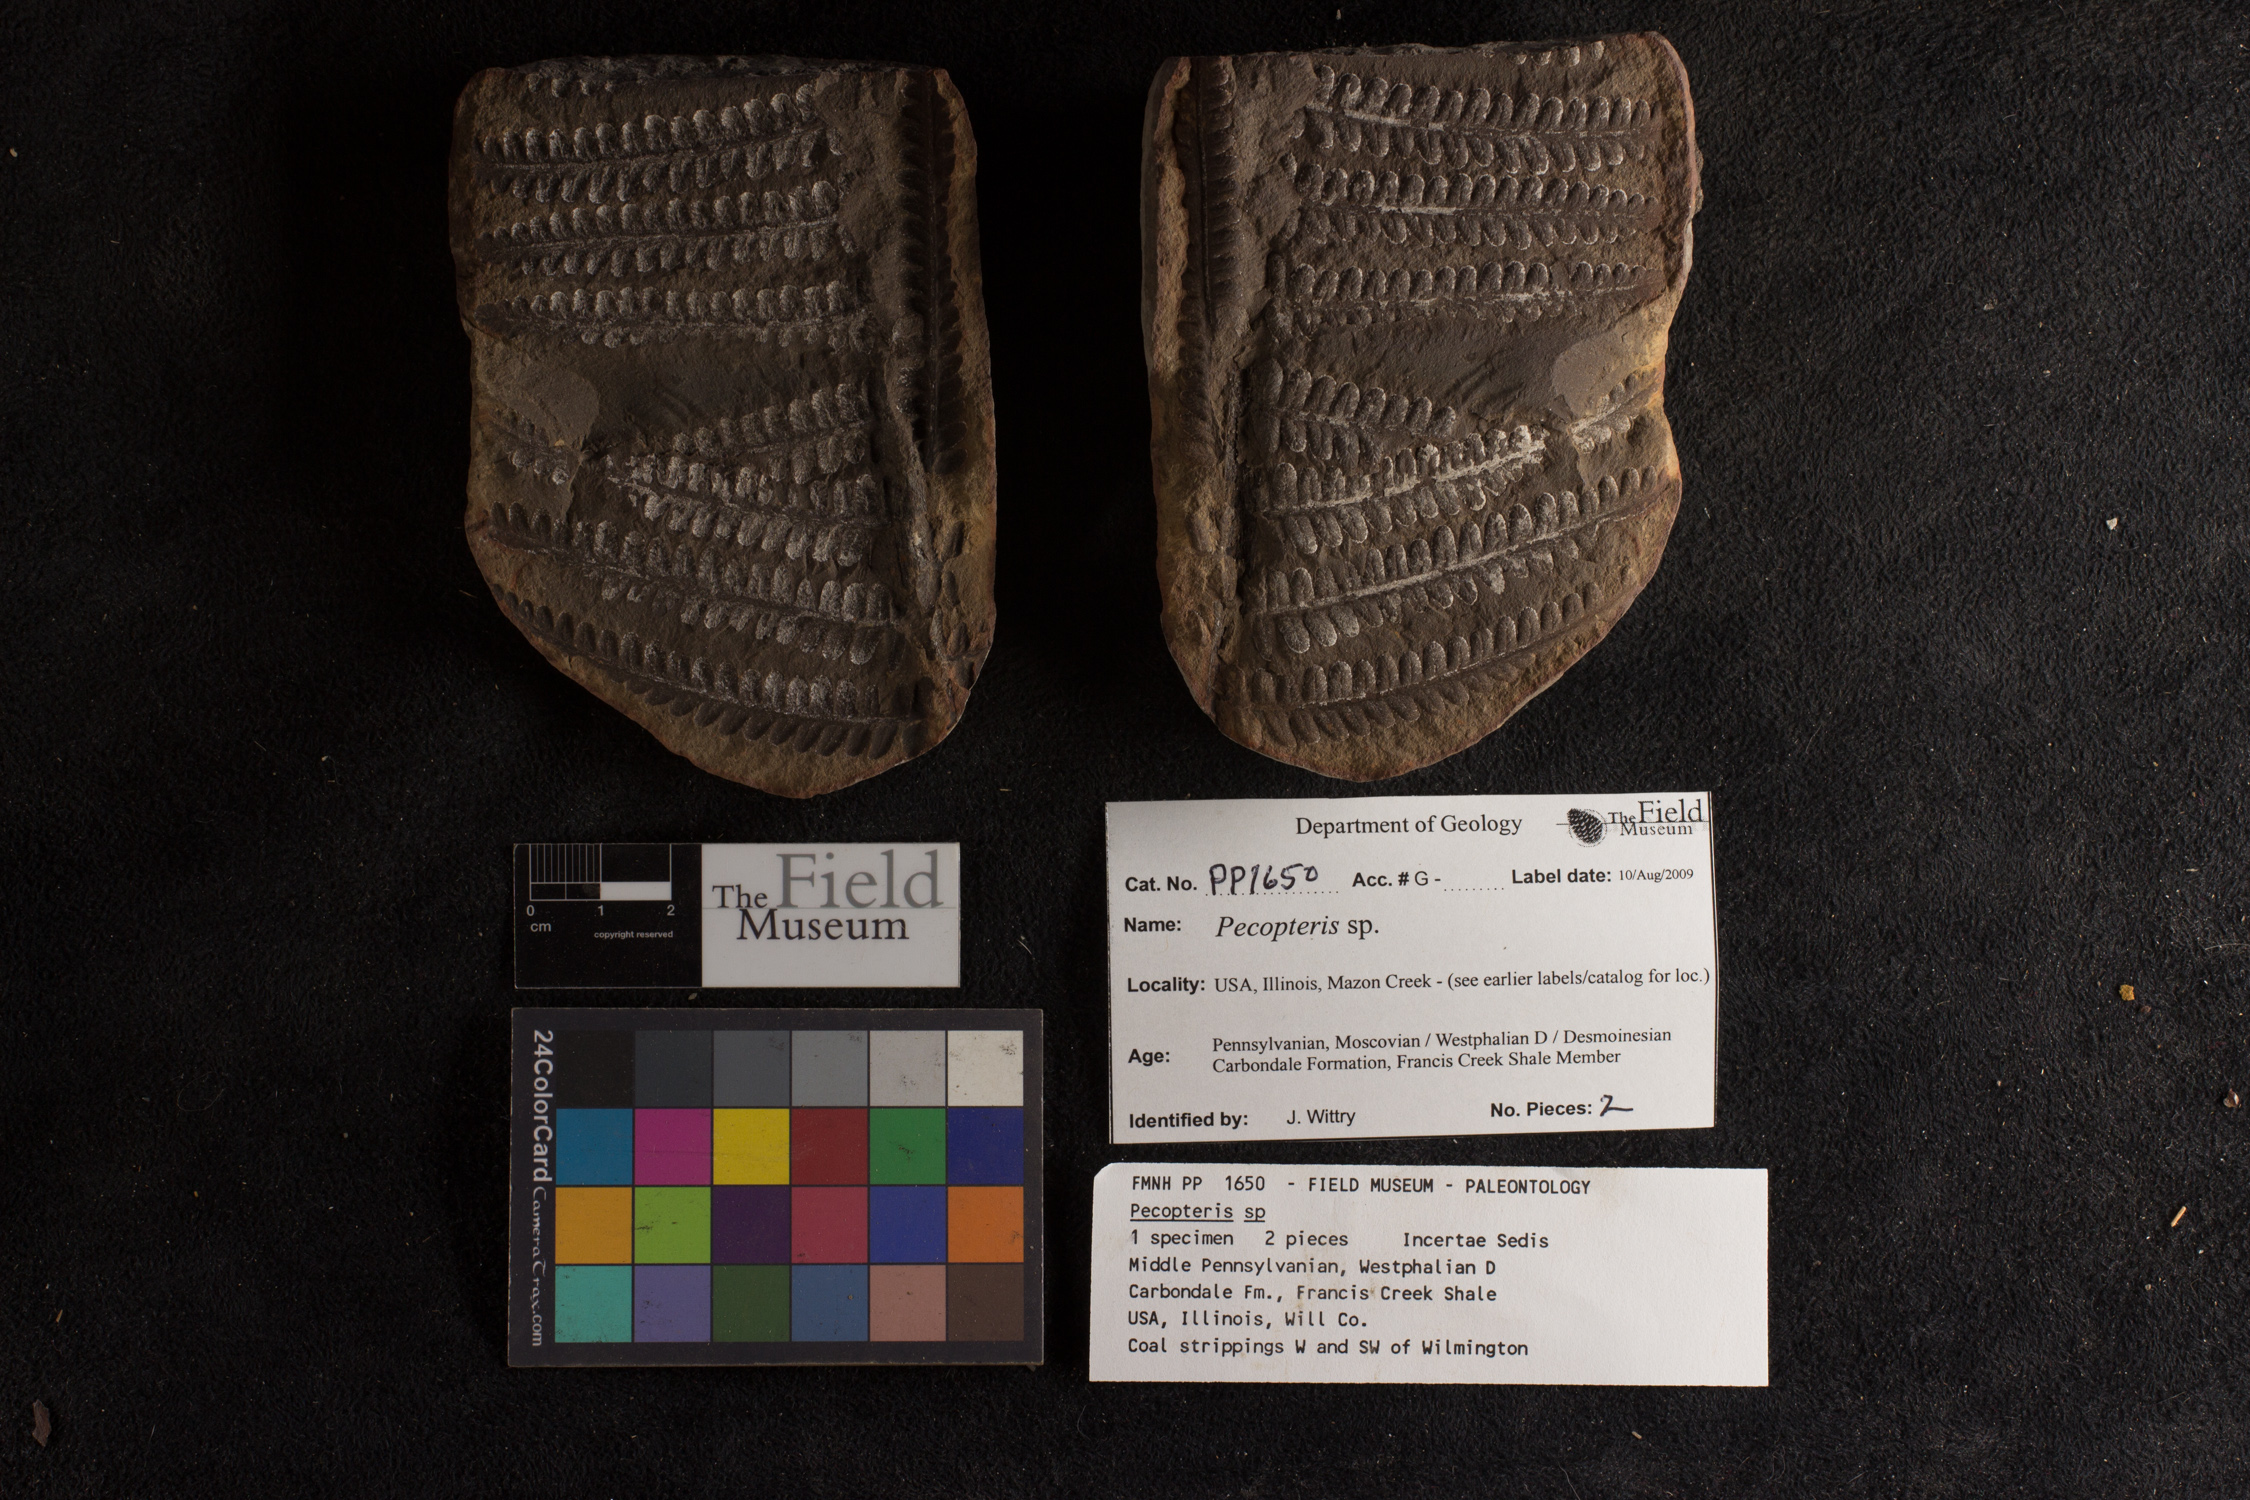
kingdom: Plantae
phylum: Tracheophyta
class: Polypodiopsida
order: Marattiales
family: Asterothecaceae
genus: Pecopteris
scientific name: Pecopteris
